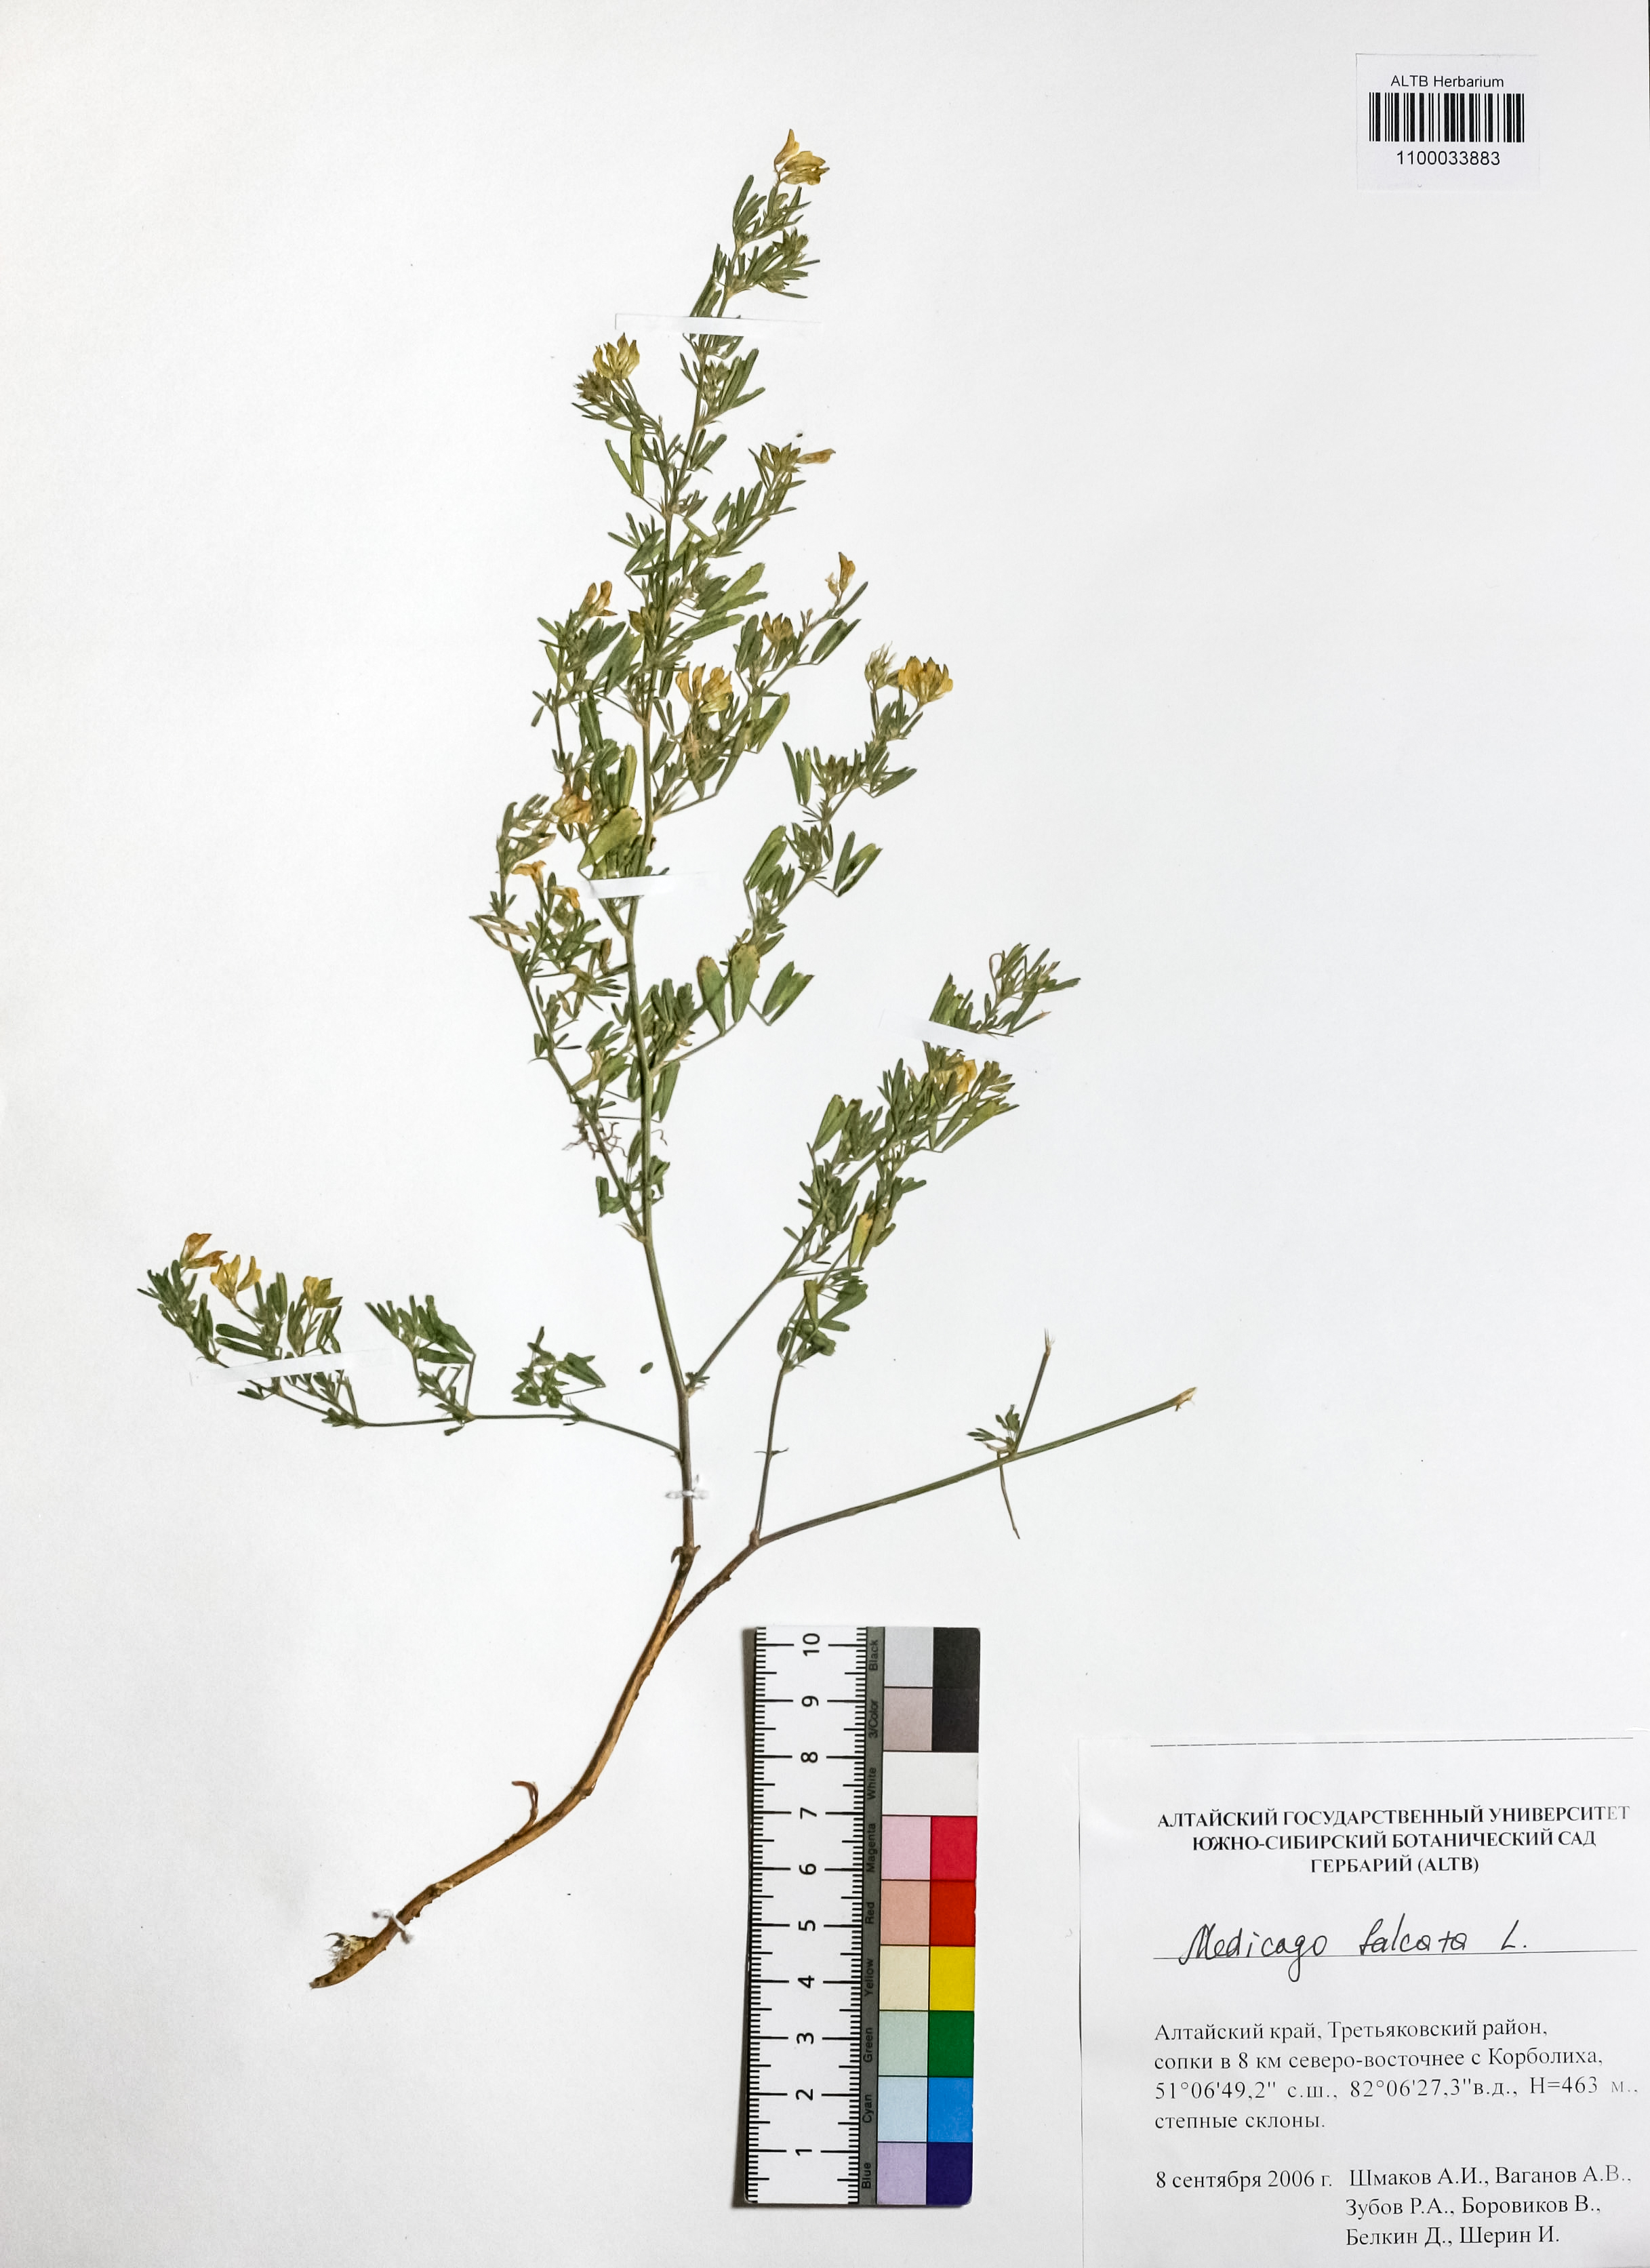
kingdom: Plantae
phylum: Tracheophyta
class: Magnoliopsida
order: Fabales
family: Fabaceae
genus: Medicago
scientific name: Medicago falcata
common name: Sickle medick
